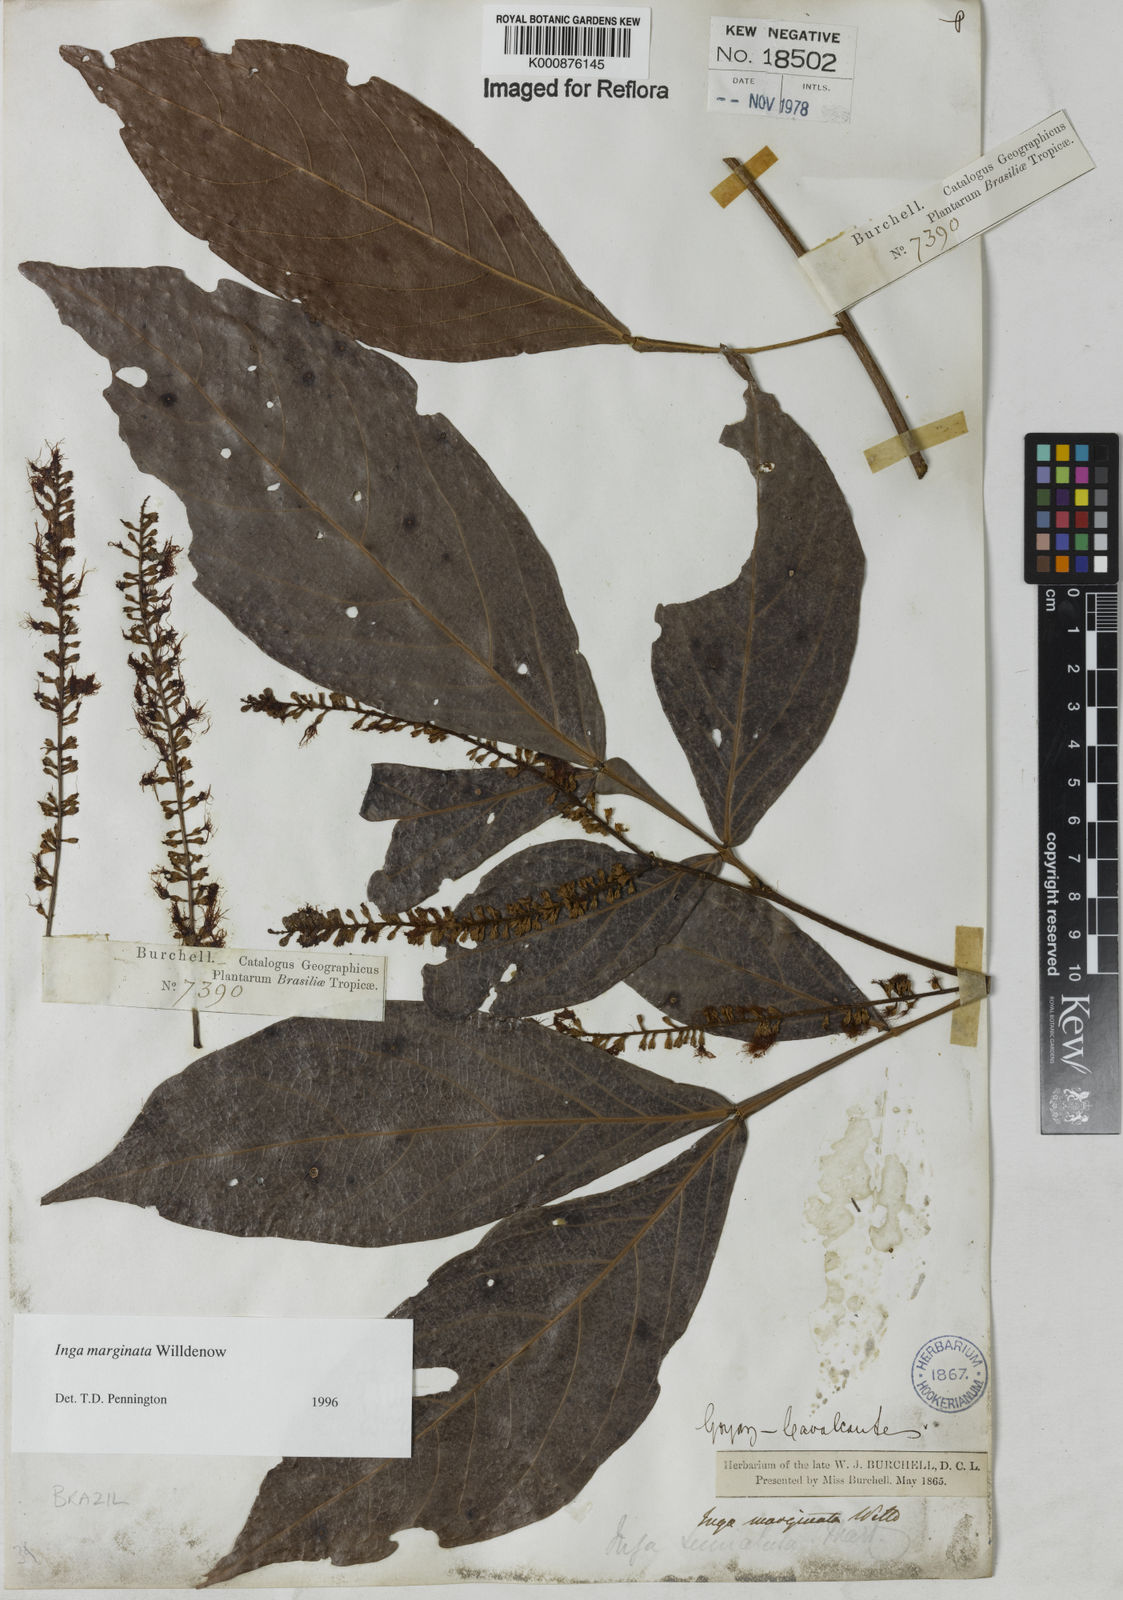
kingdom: Plantae
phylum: Tracheophyta
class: Magnoliopsida
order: Fabales
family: Fabaceae
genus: Inga
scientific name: Inga marginata
